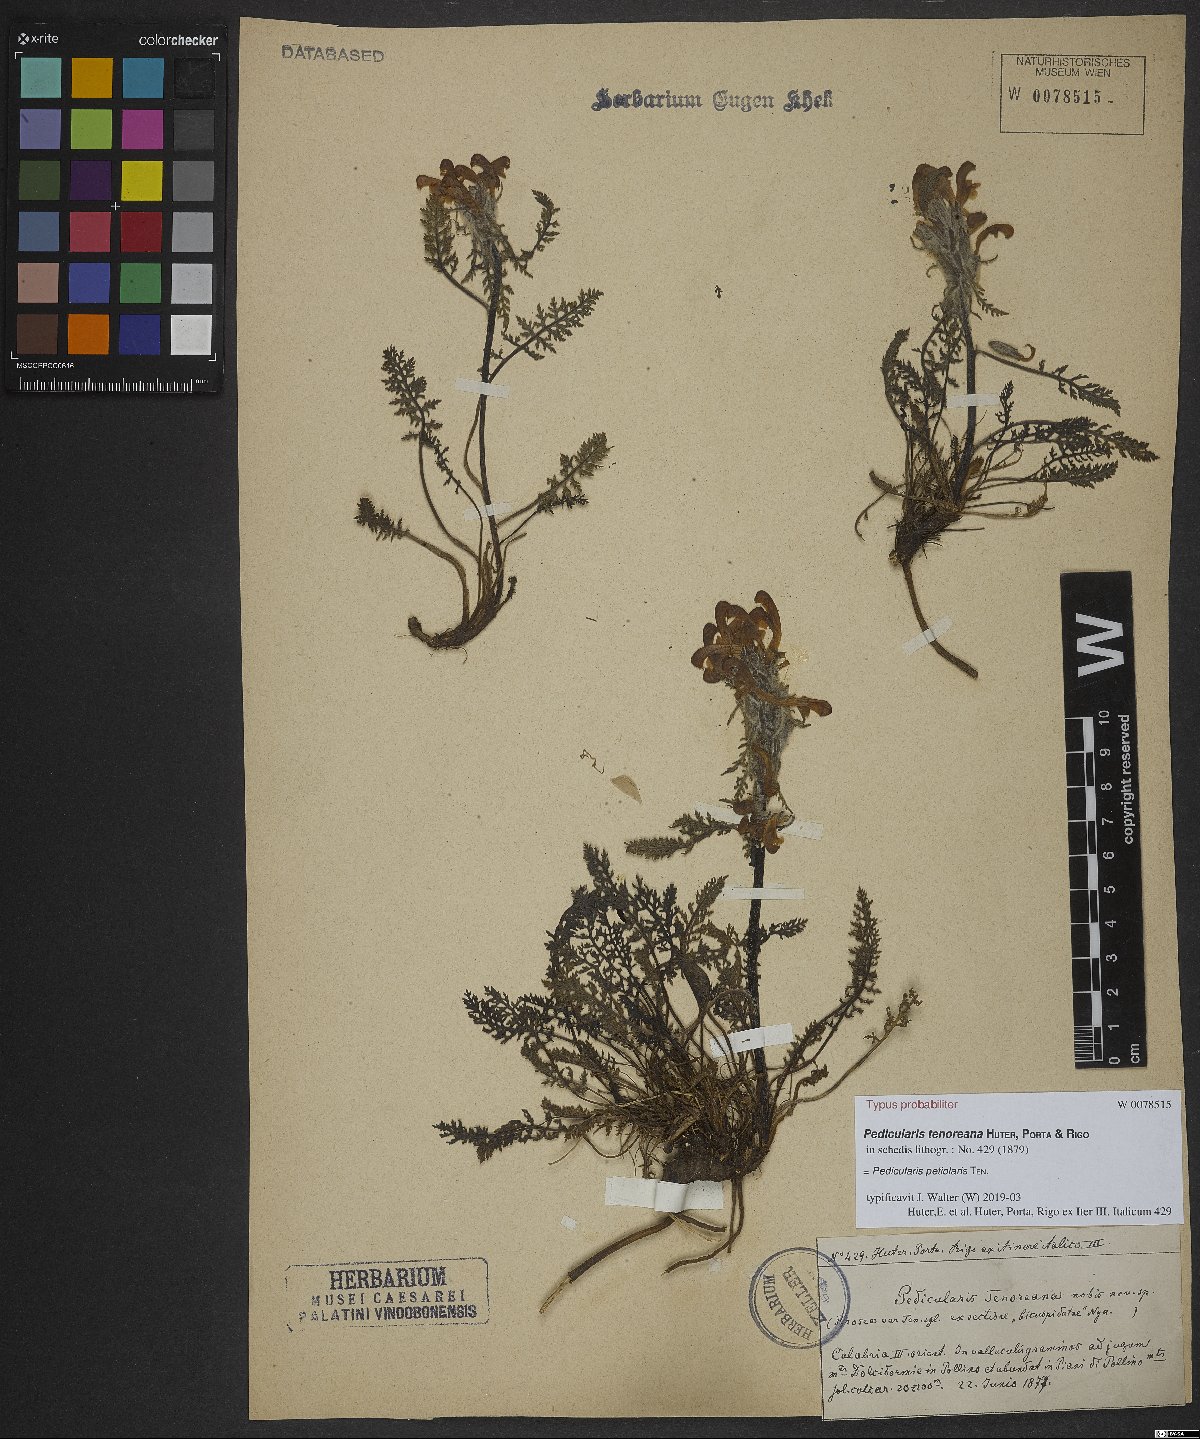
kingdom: Plantae
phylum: Tracheophyta
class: Magnoliopsida
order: Lamiales
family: Orobanchaceae
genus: Pedicularis
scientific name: Pedicularis petiolaris
